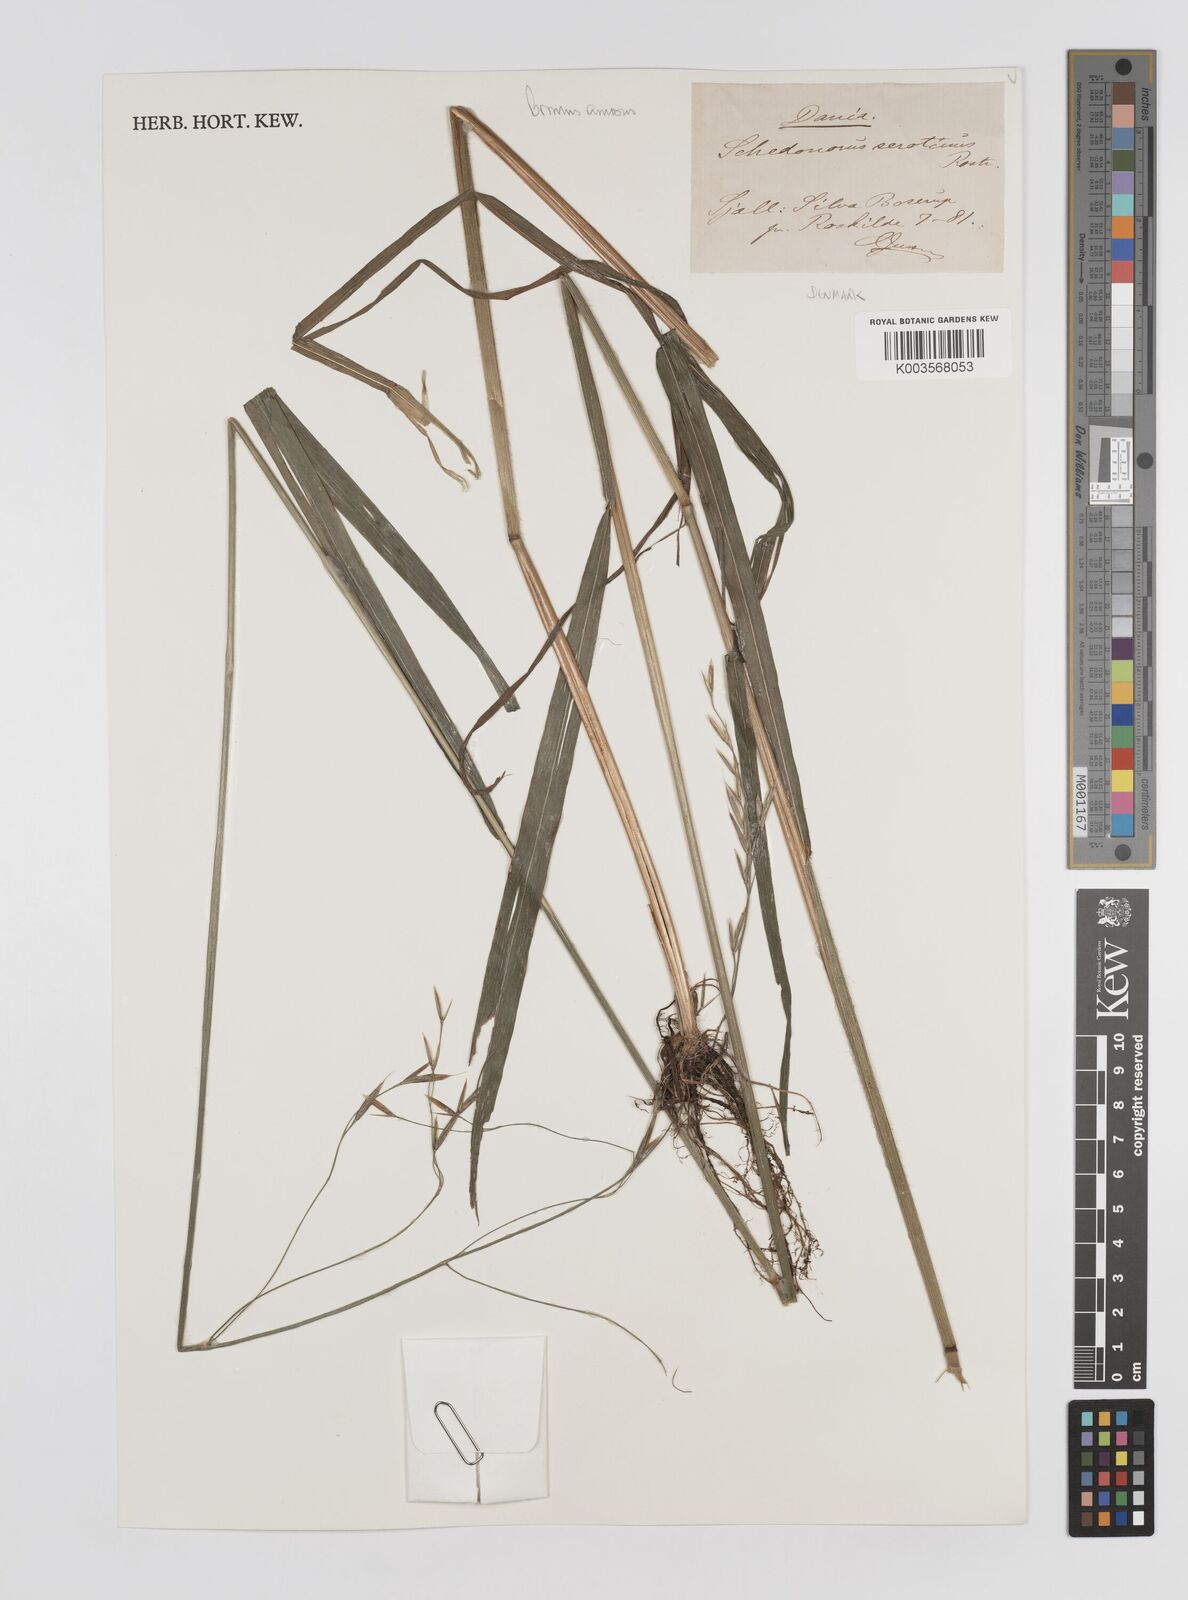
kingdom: Plantae
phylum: Tracheophyta
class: Liliopsida
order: Poales
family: Poaceae
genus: Brachypodium
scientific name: Brachypodium retusum
